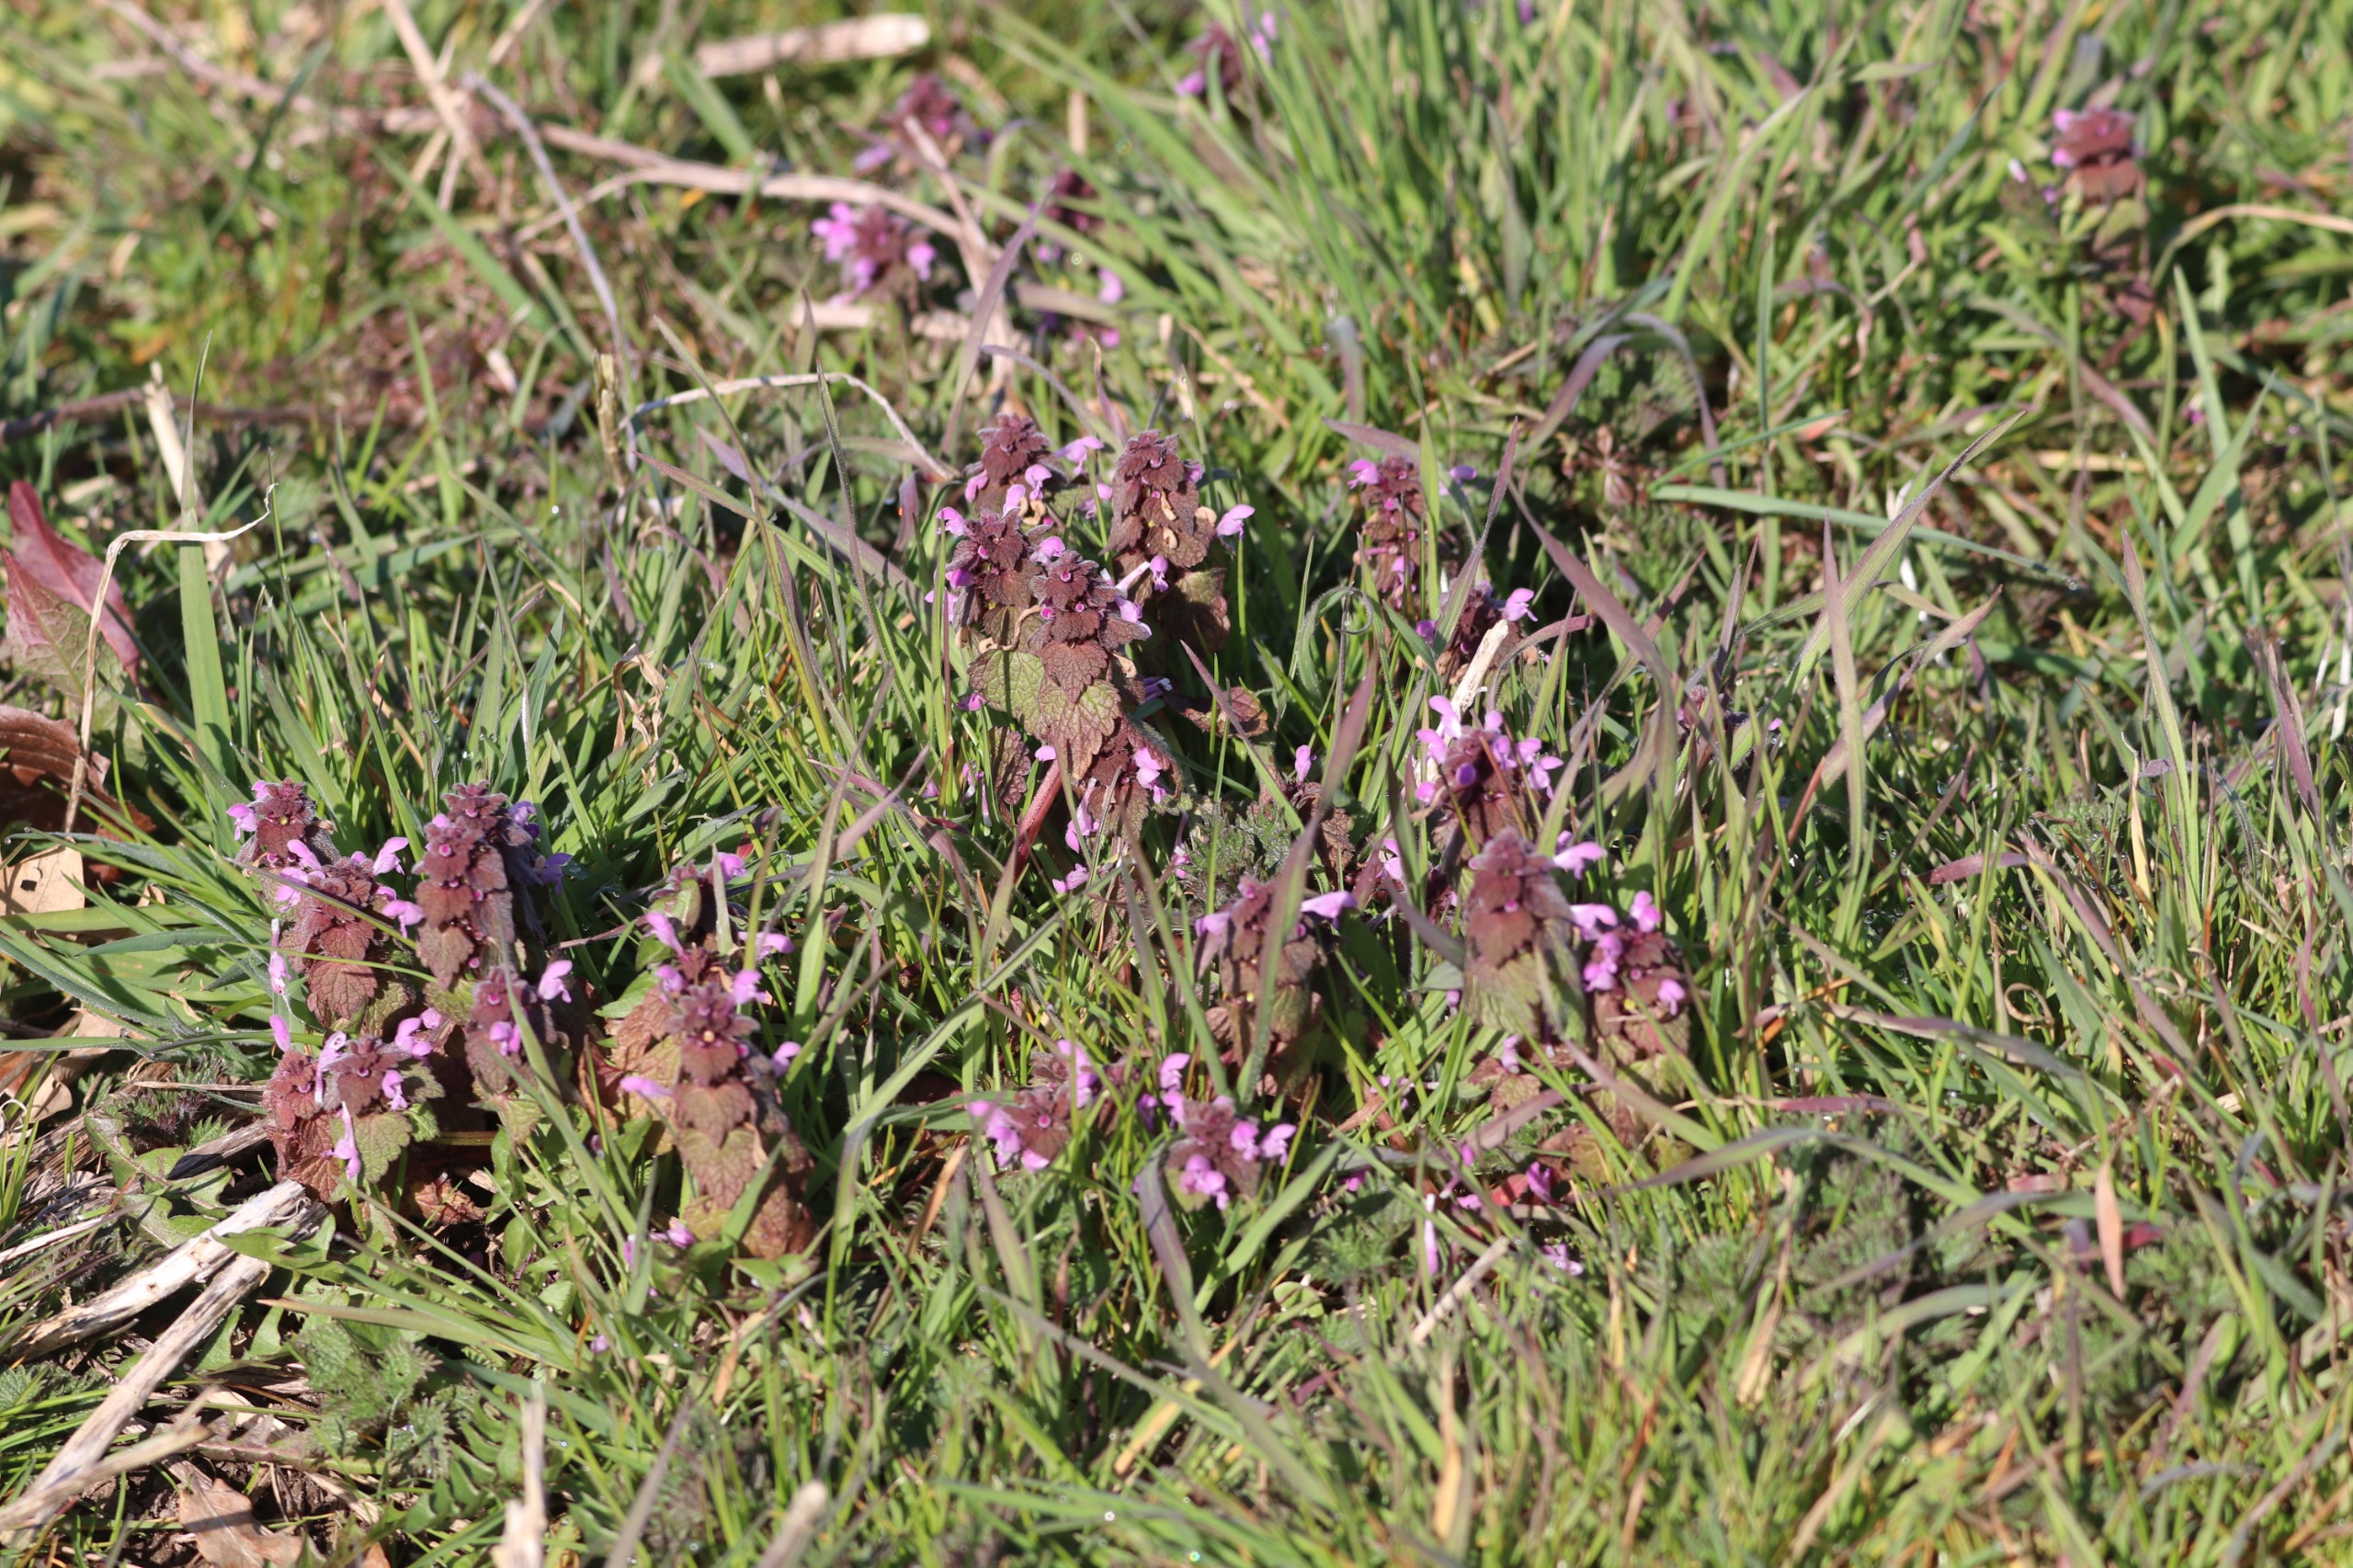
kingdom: Plantae
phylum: Tracheophyta
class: Magnoliopsida
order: Lamiales
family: Lamiaceae
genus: Lamium
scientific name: Lamium purpureum
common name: Rød tvetand
